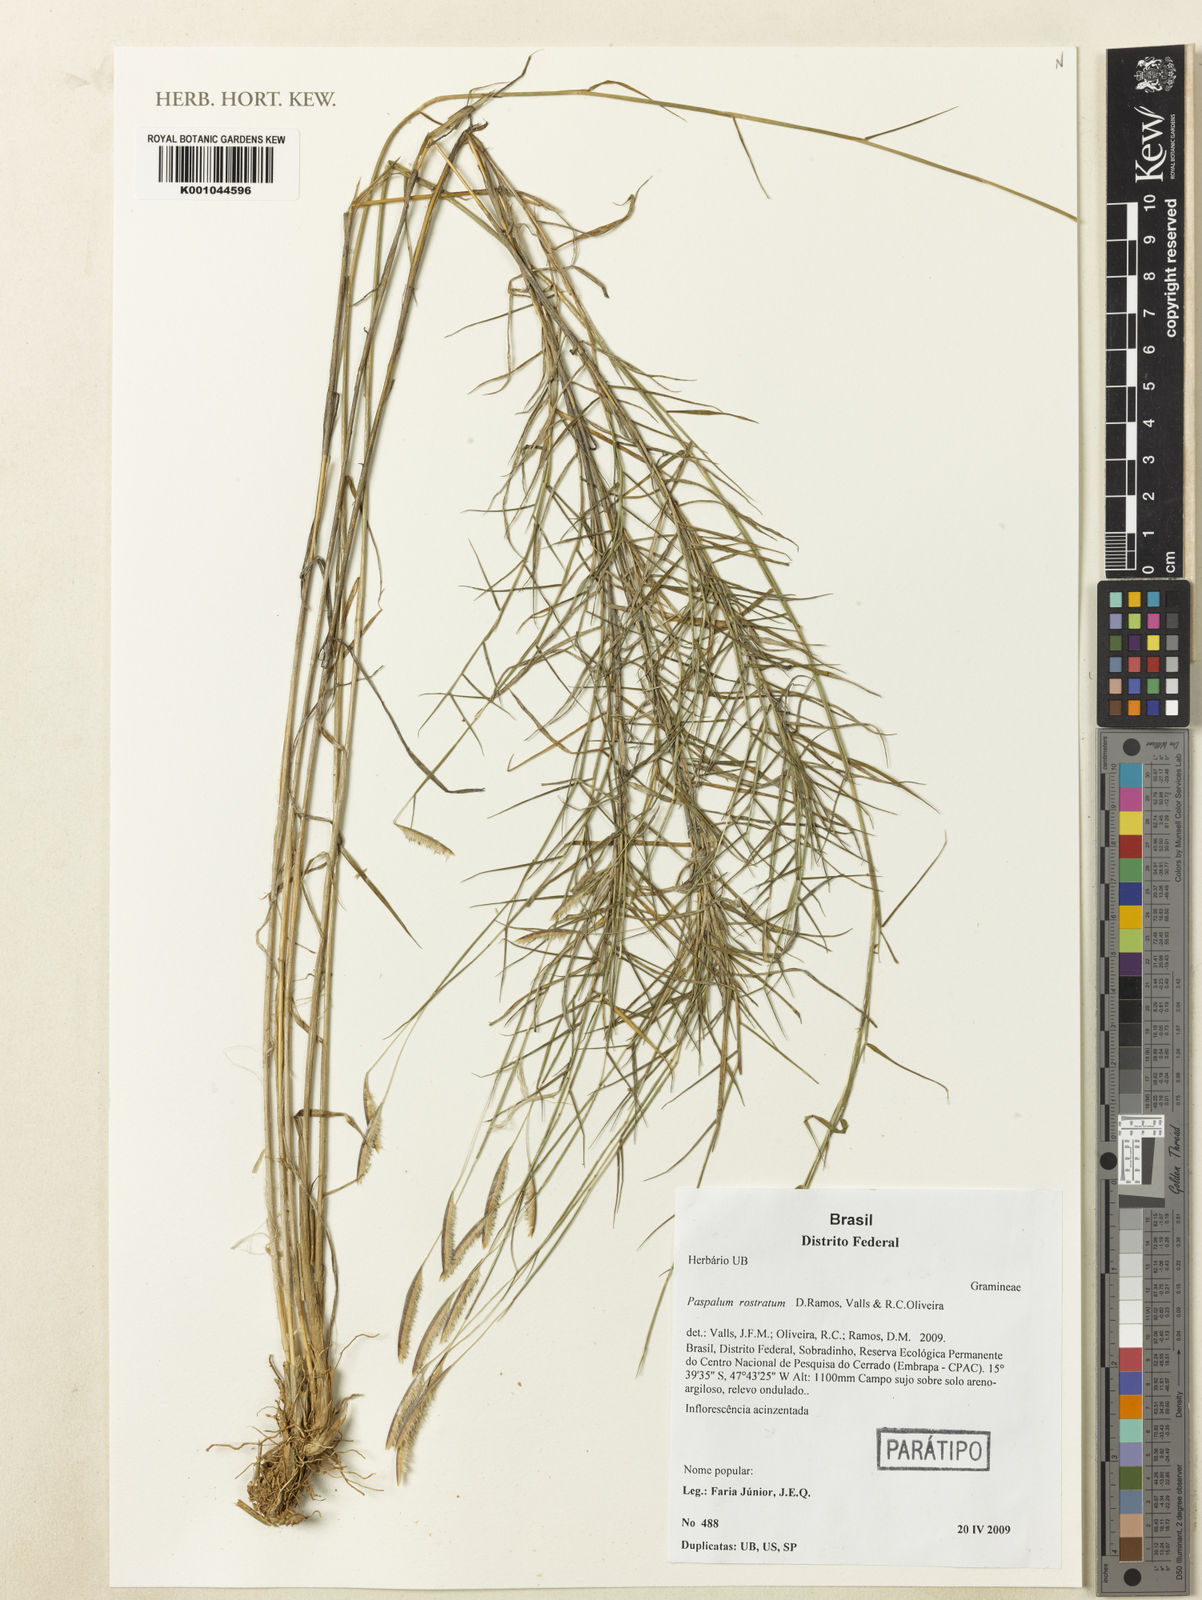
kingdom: Plantae
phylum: Tracheophyta
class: Liliopsida
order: Poales
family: Poaceae
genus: Paspalum
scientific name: Paspalum rostratum
